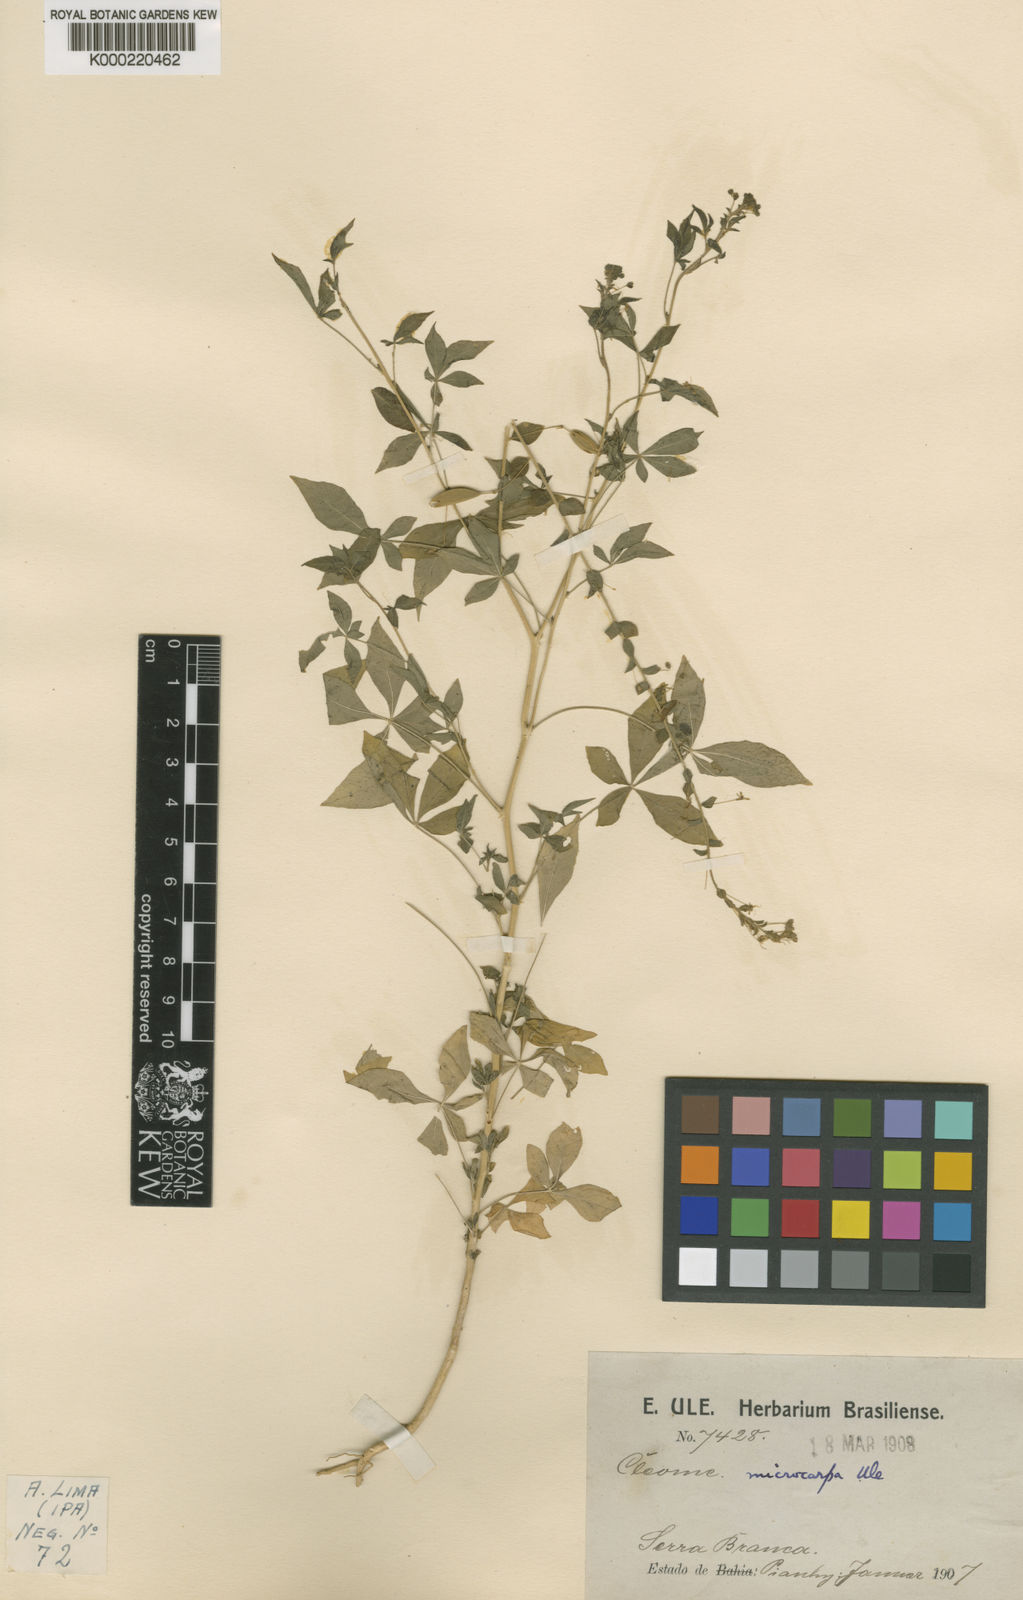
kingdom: Plantae
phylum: Tracheophyta
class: Magnoliopsida
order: Brassicales
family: Cleomaceae
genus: Tarenaya
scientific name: Tarenaya microcarpa
